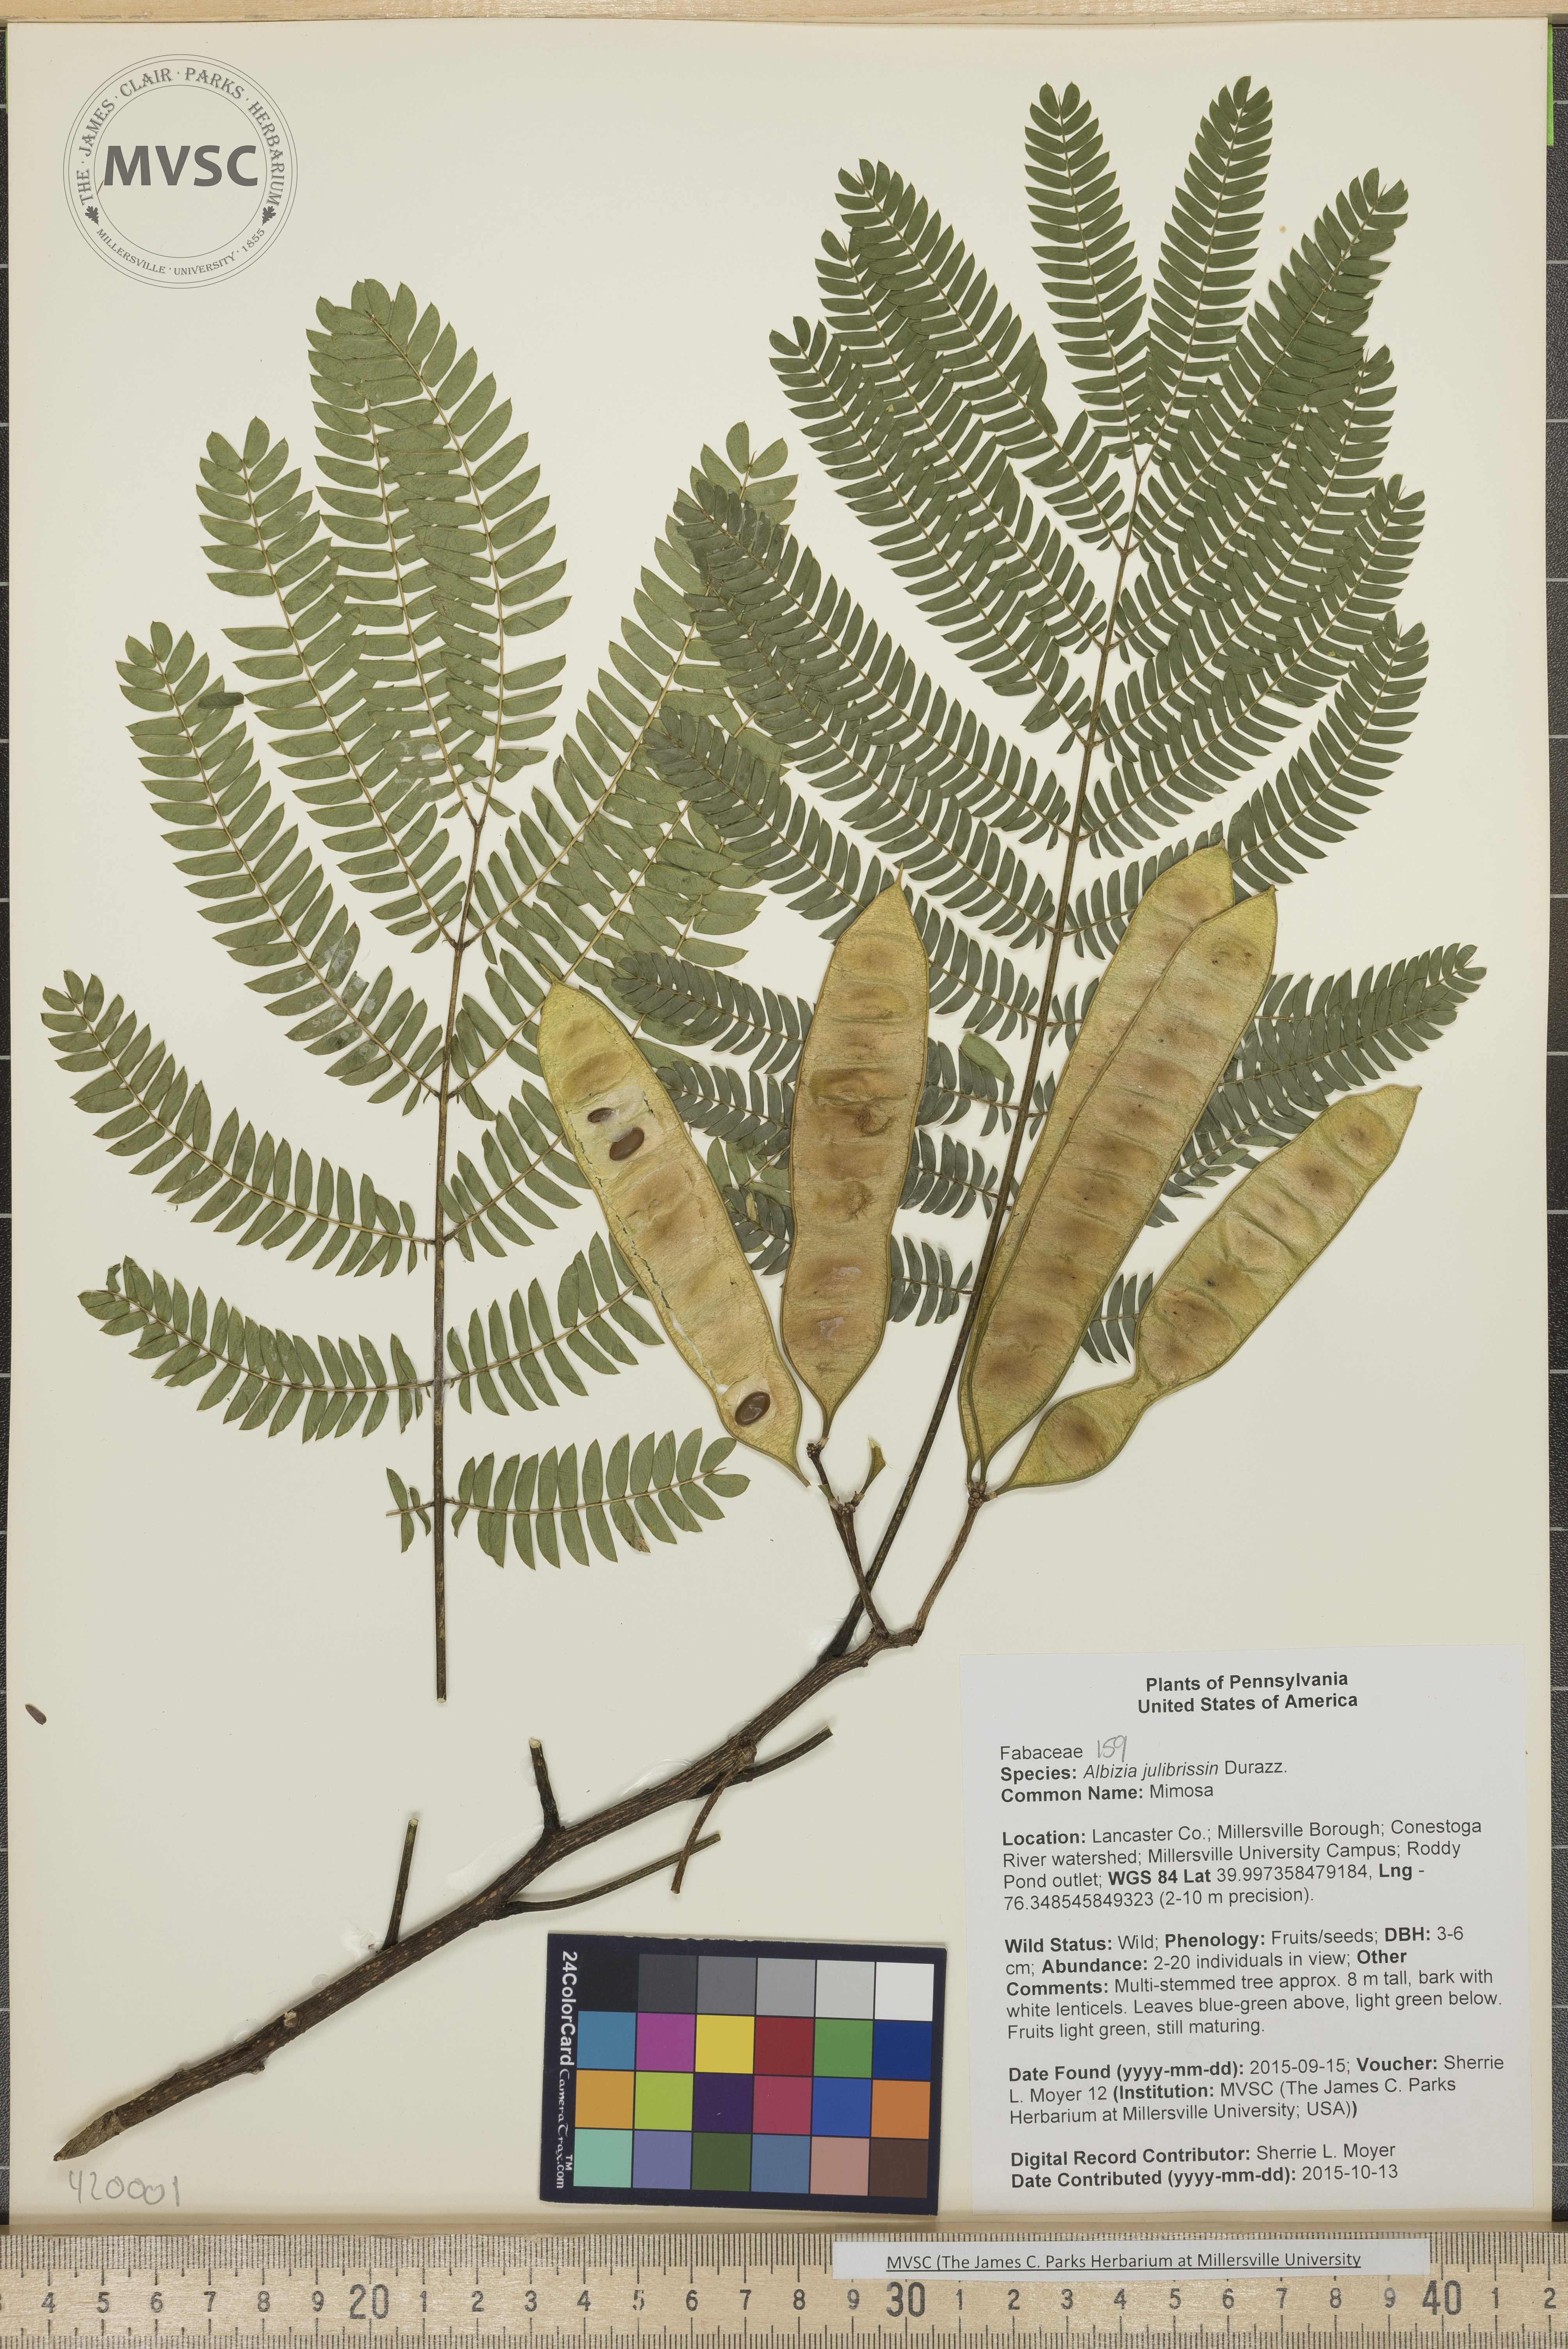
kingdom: Plantae
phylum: Tracheophyta
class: Magnoliopsida
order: Fabales
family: Fabaceae
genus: Albizia
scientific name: Albizia julibrissin
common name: Mimosa
